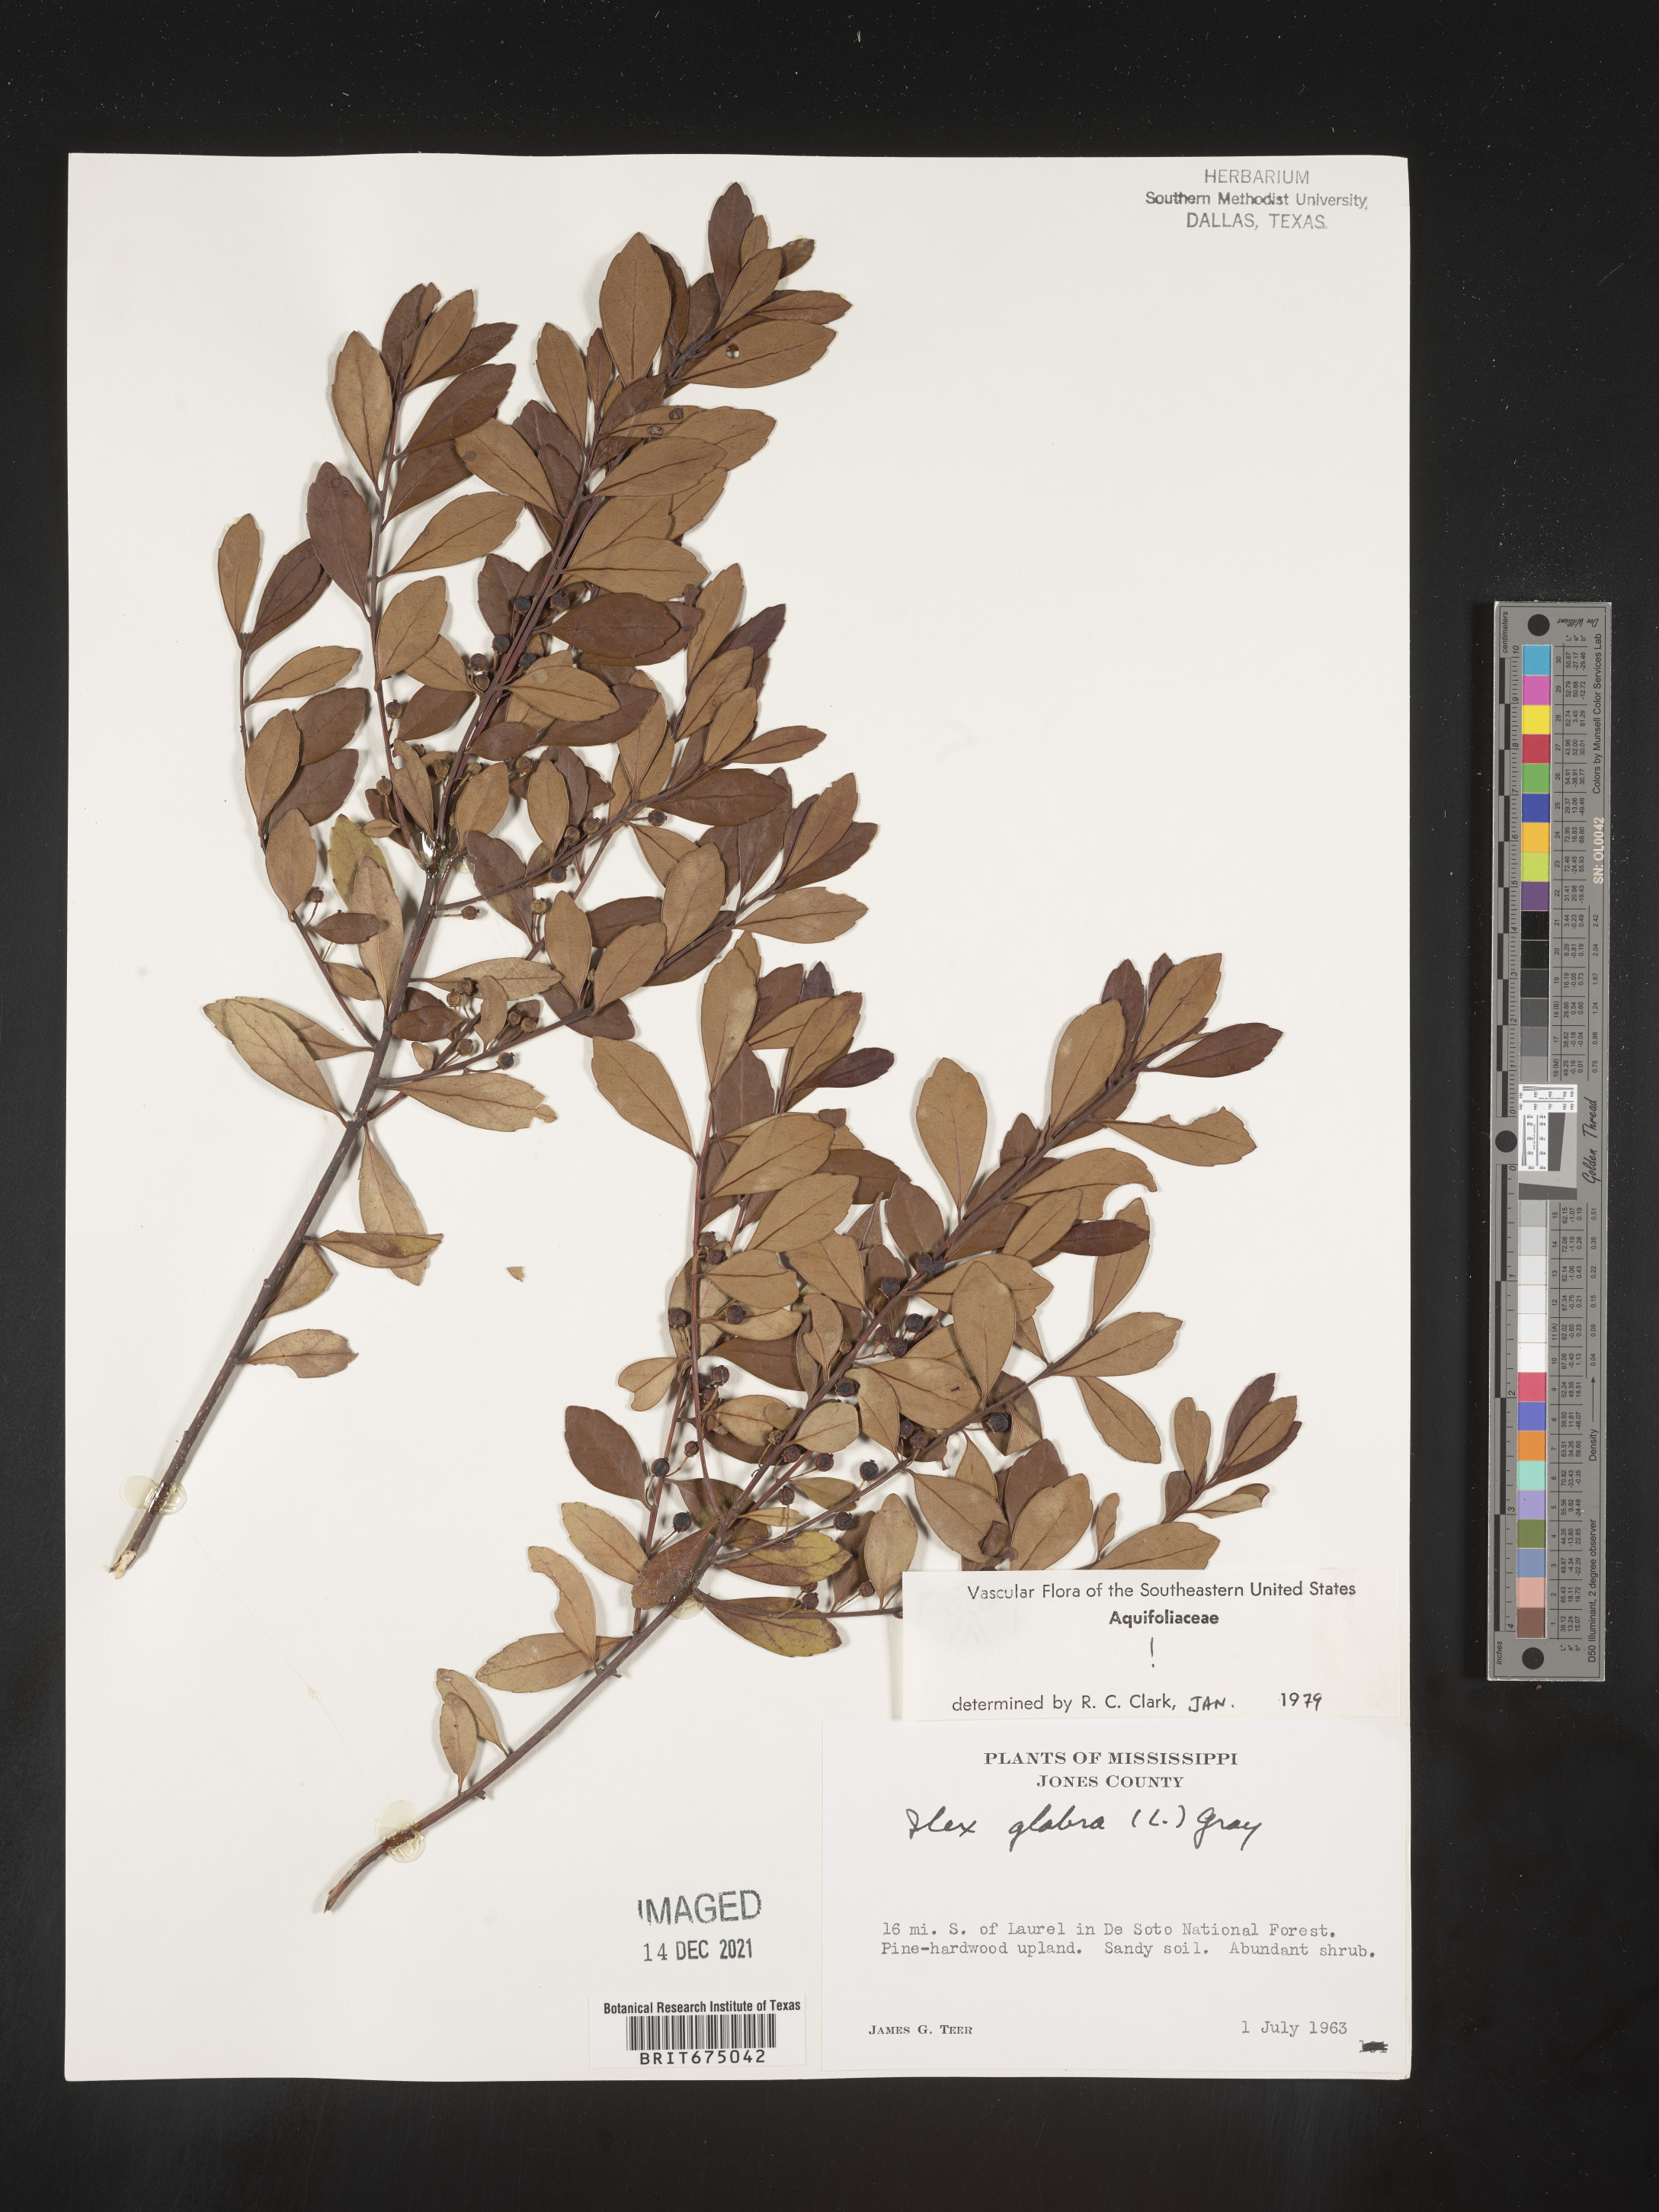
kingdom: Plantae
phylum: Tracheophyta
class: Magnoliopsida
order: Aquifoliales
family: Aquifoliaceae
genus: Ilex
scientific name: Ilex glabra
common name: Bitter gallberry
